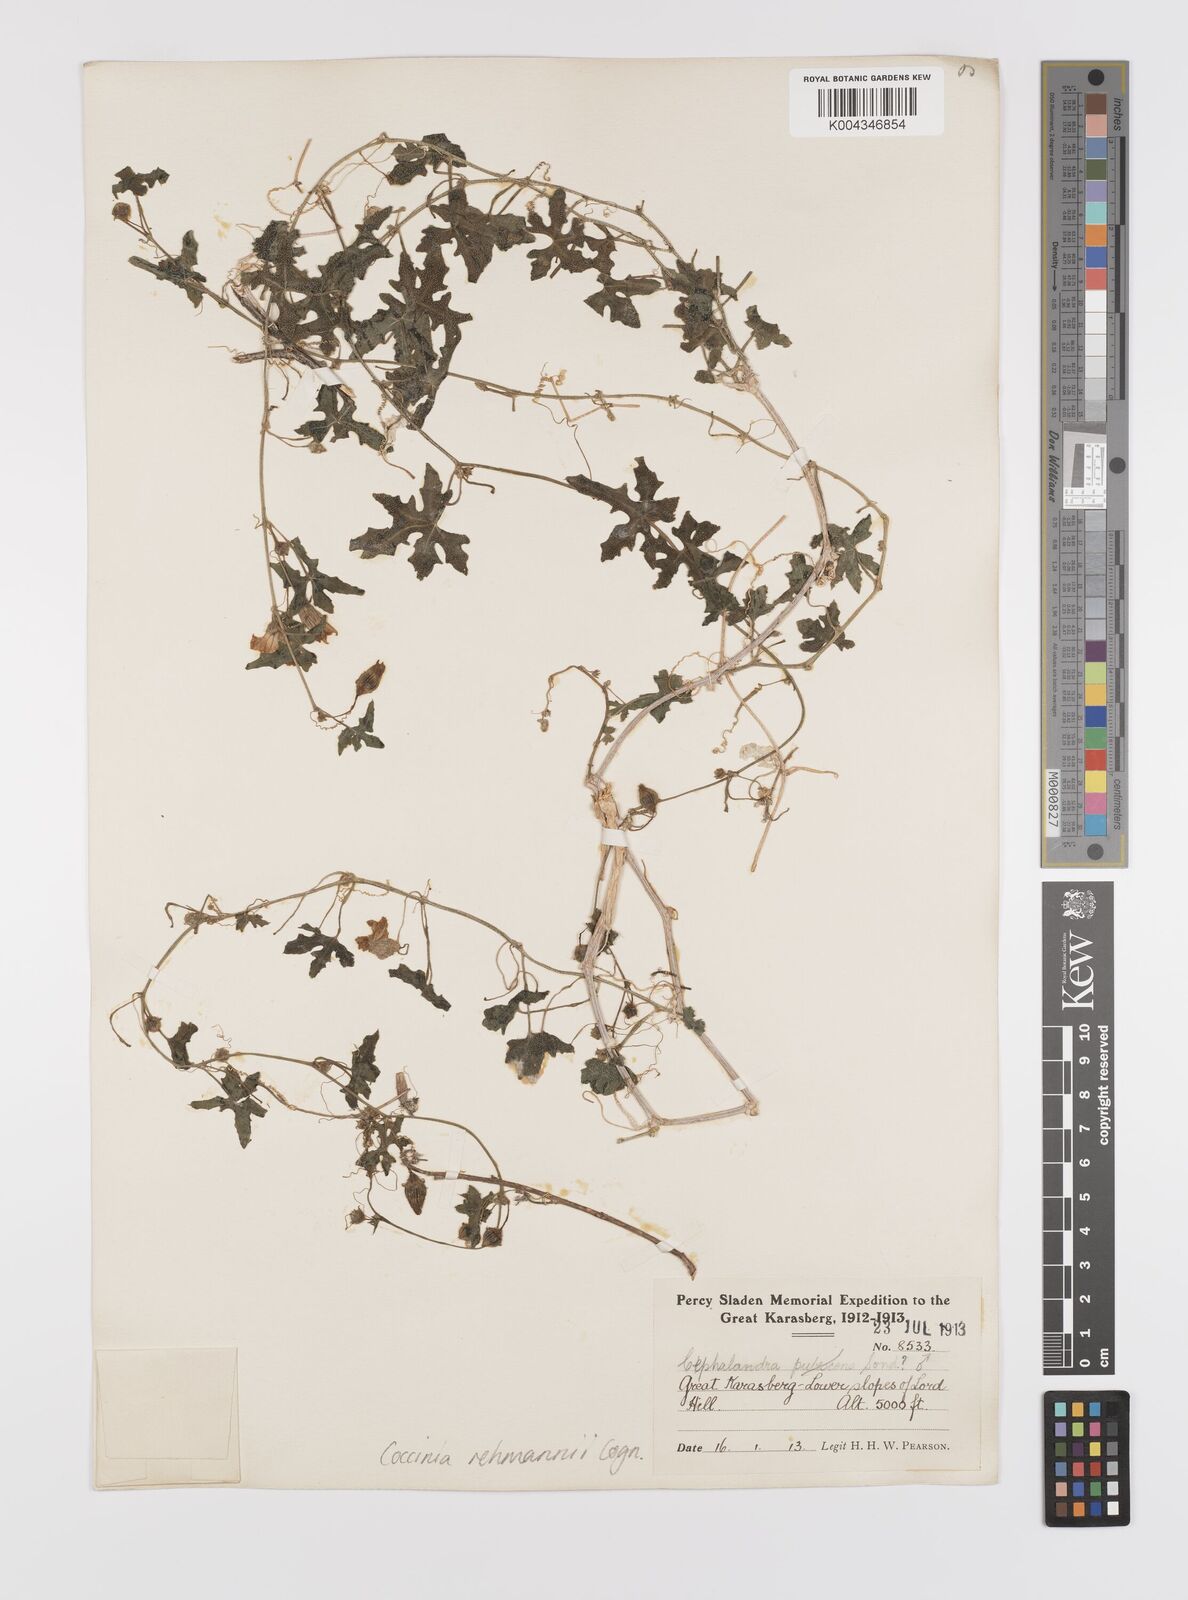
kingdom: Plantae
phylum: Tracheophyta
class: Magnoliopsida
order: Cucurbitales
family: Cucurbitaceae
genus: Coccinia
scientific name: Coccinia rehmannii
